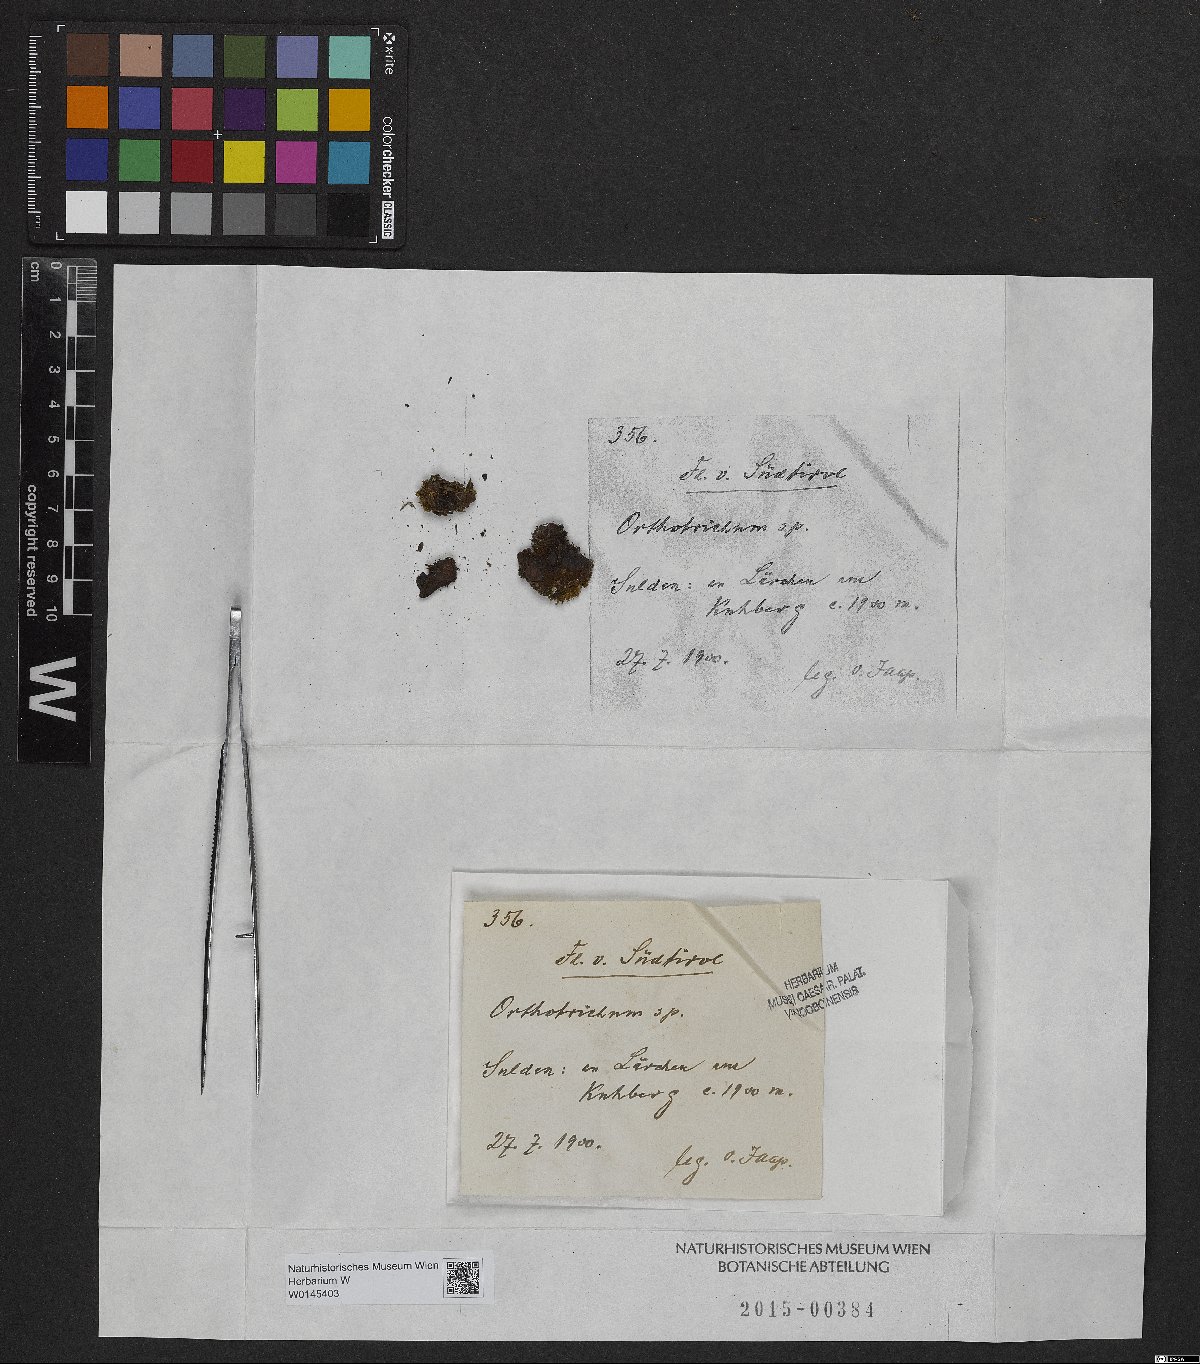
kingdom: Plantae
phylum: Bryophyta
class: Bryopsida
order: Orthotrichales
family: Orthotrichaceae
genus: Orthotrichum
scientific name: Orthotrichum
